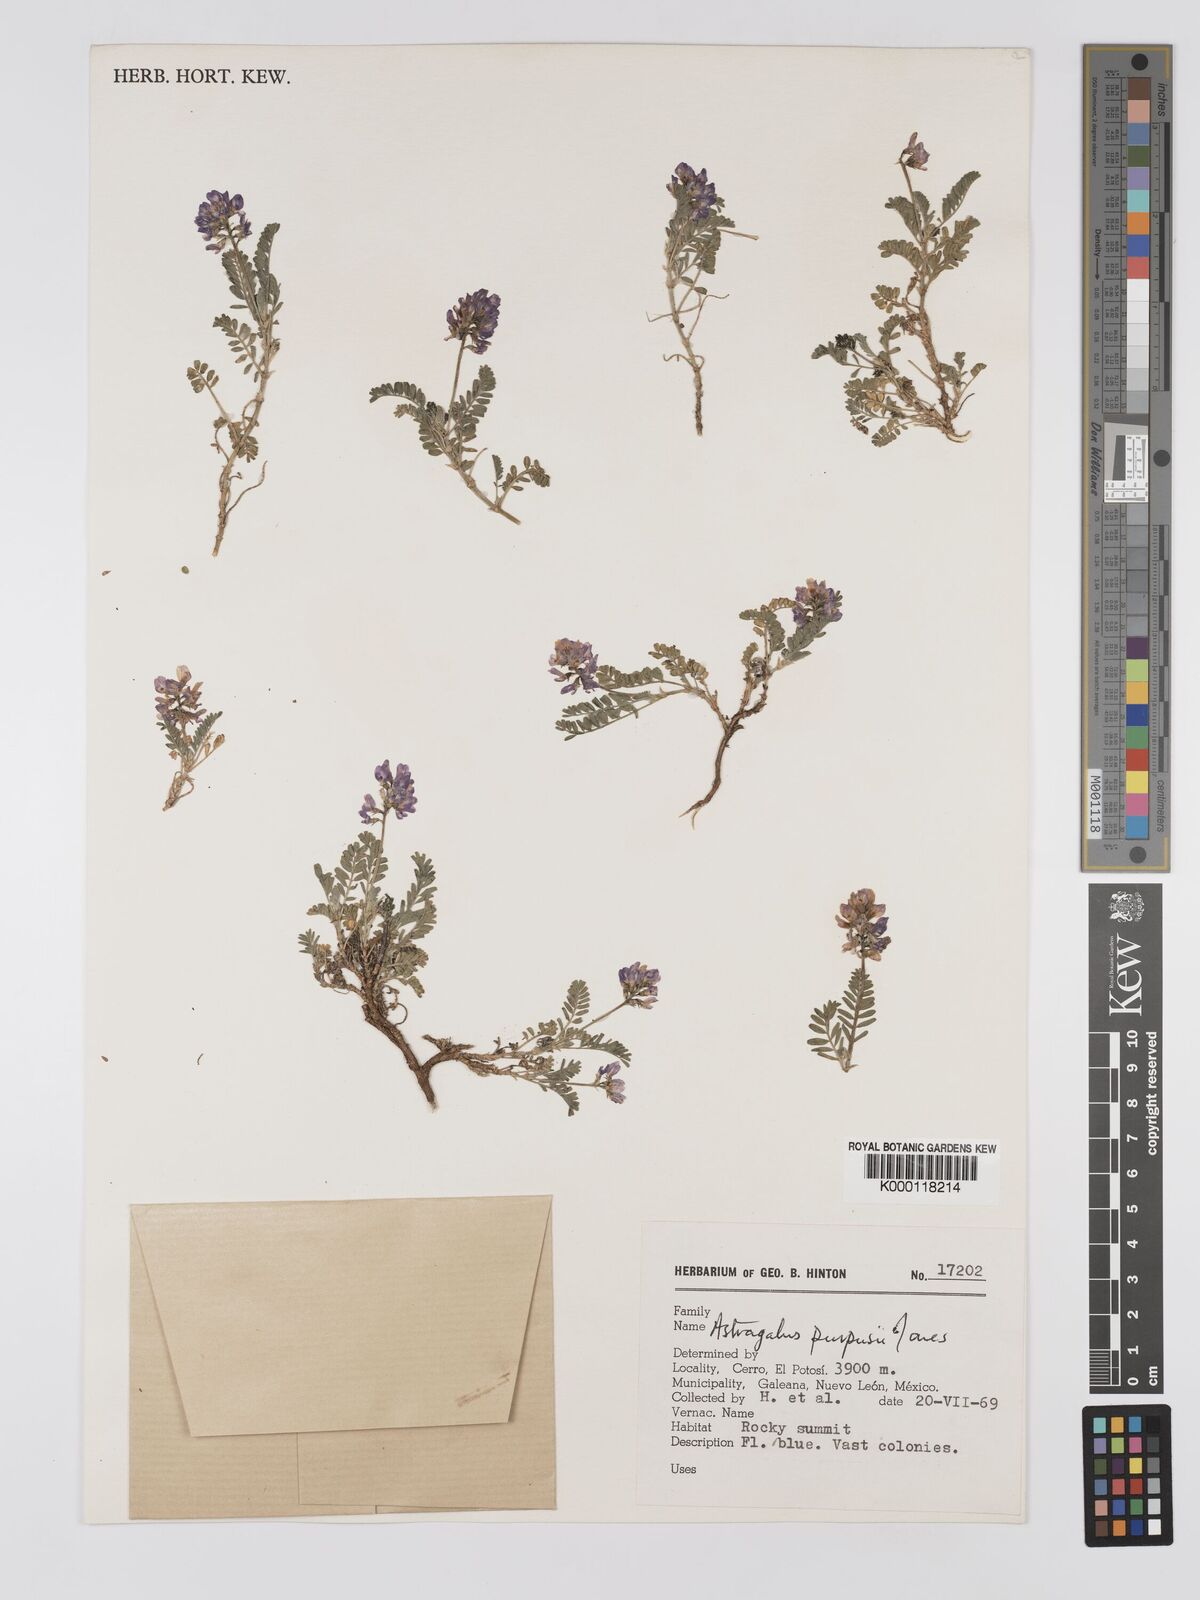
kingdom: Plantae
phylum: Tracheophyta
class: Magnoliopsida
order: Fabales
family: Fabaceae
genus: Astragalus
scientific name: Astragalus purpusii
